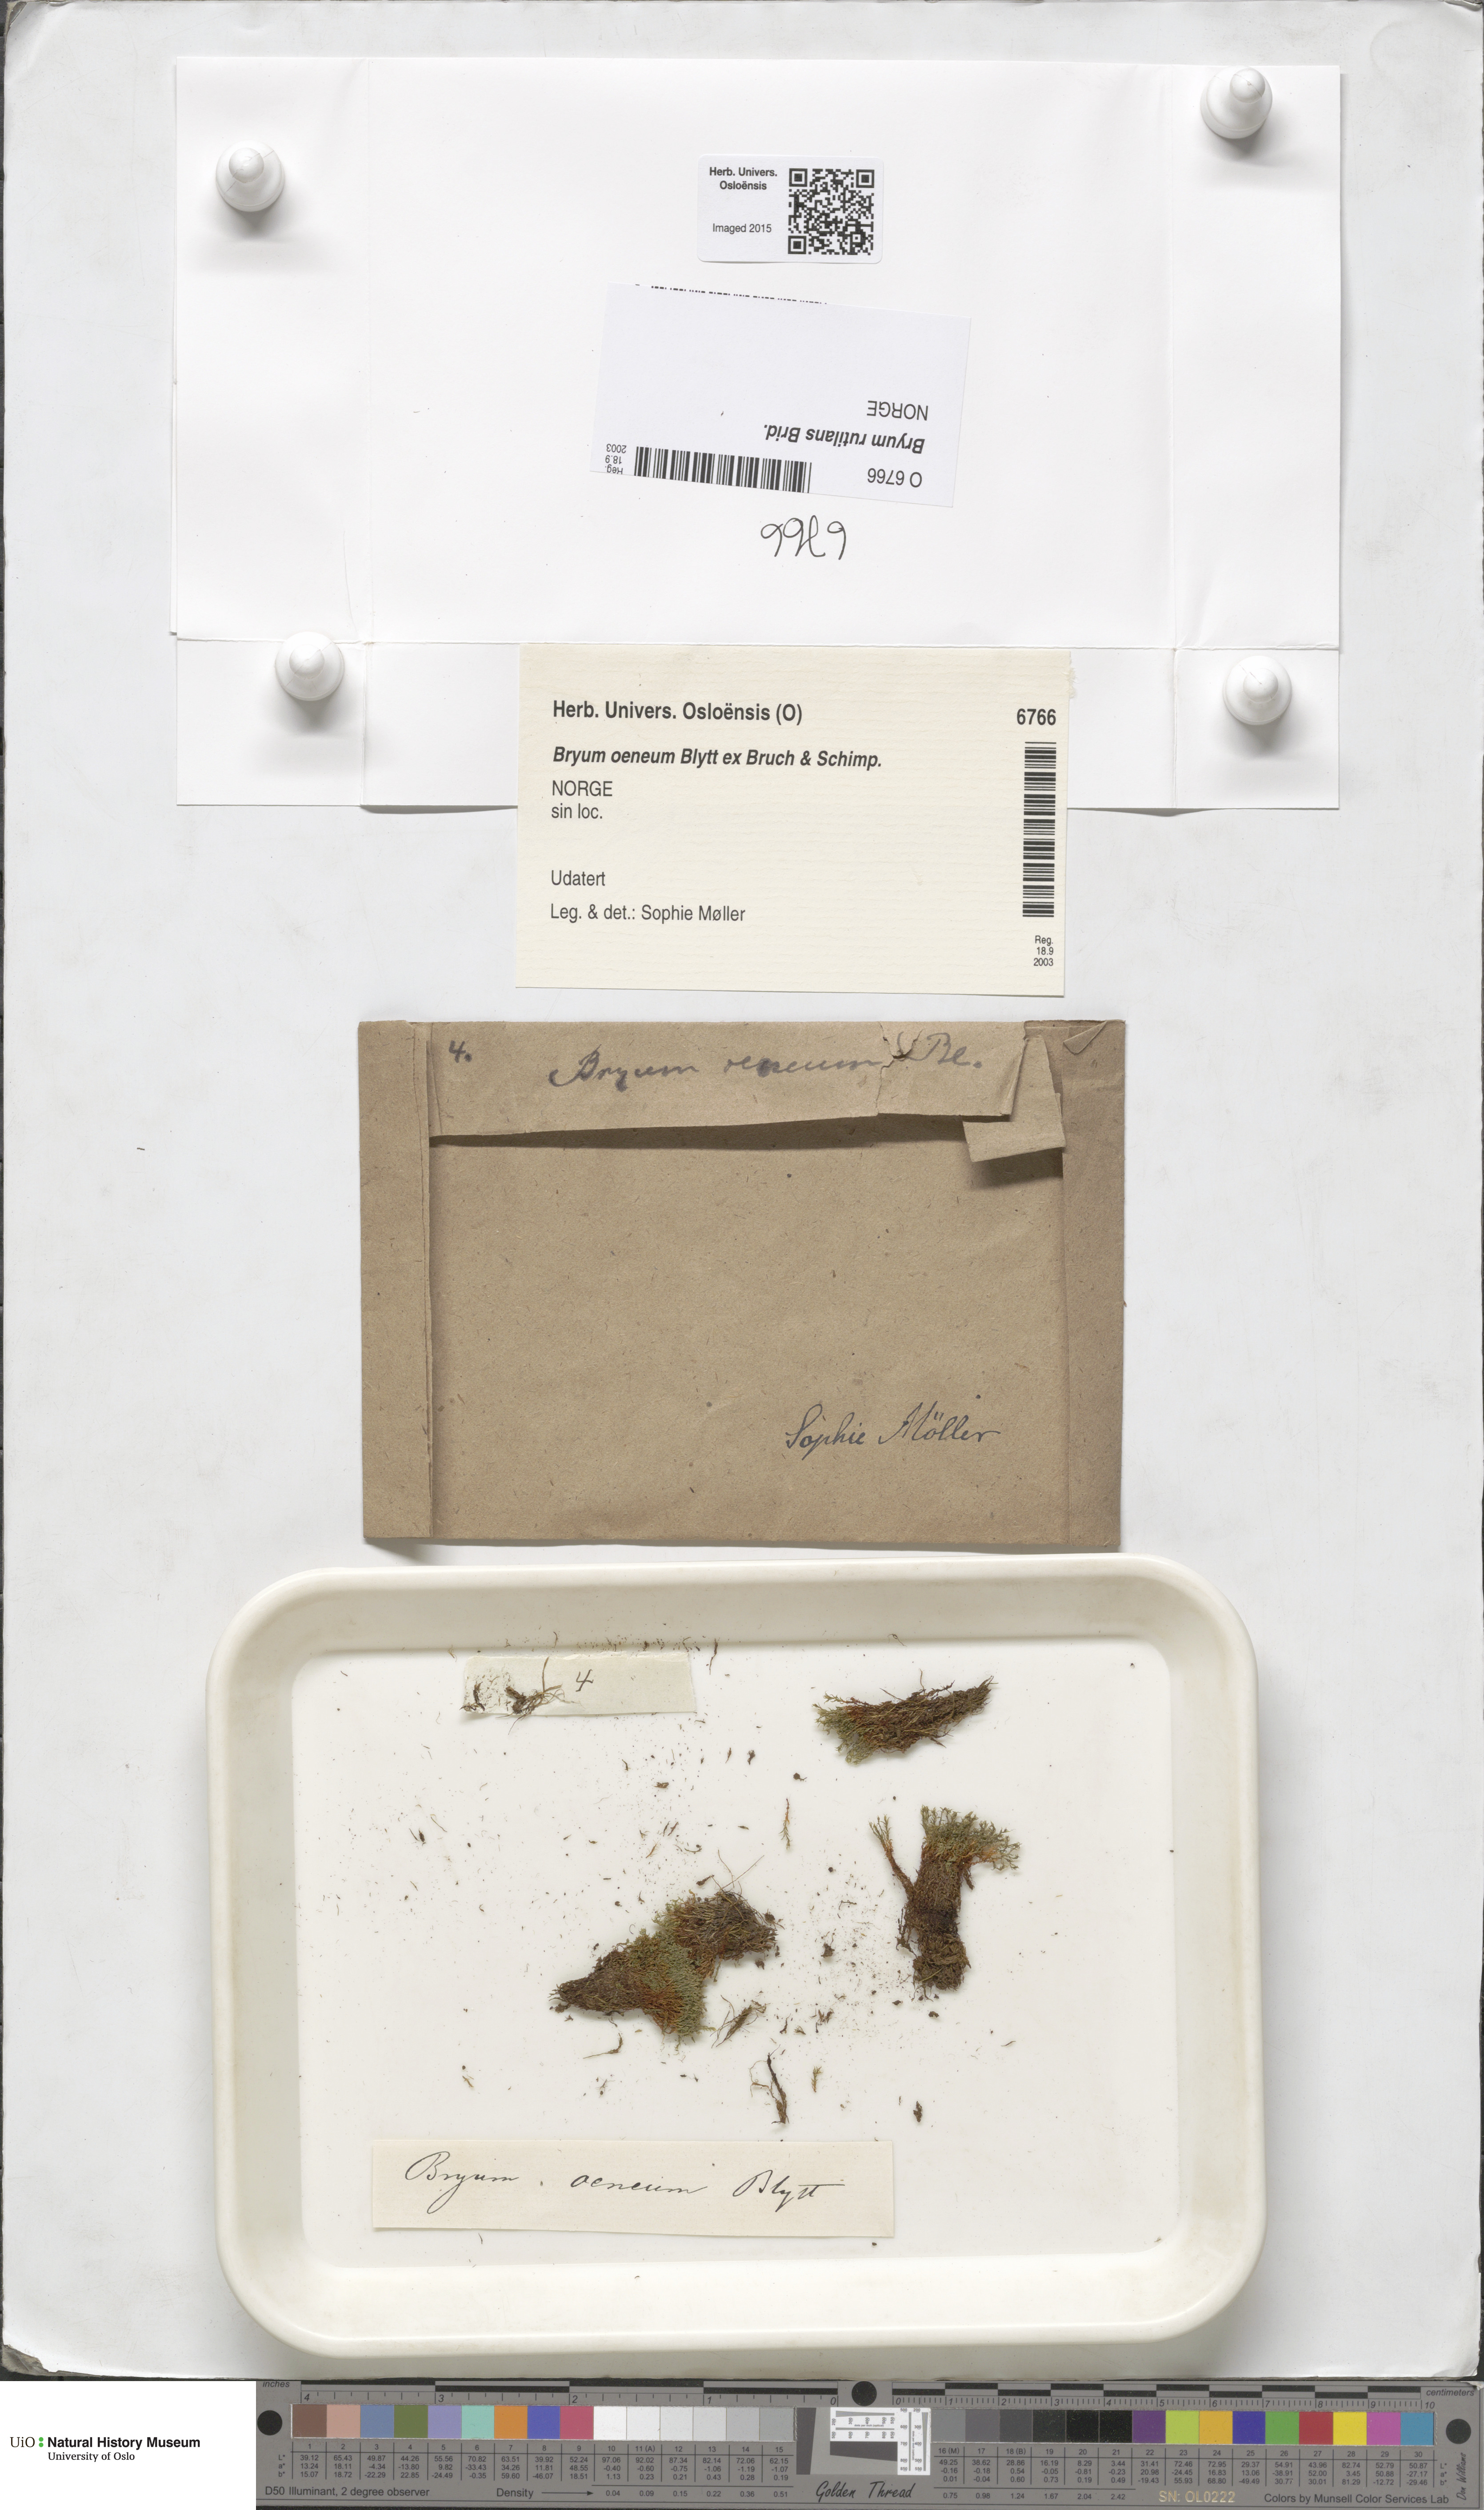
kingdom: Plantae
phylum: Bryophyta
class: Bryopsida
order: Bryales
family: Bryaceae
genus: Ptychostomum
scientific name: Ptychostomum pallens
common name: Pale thread-moss
